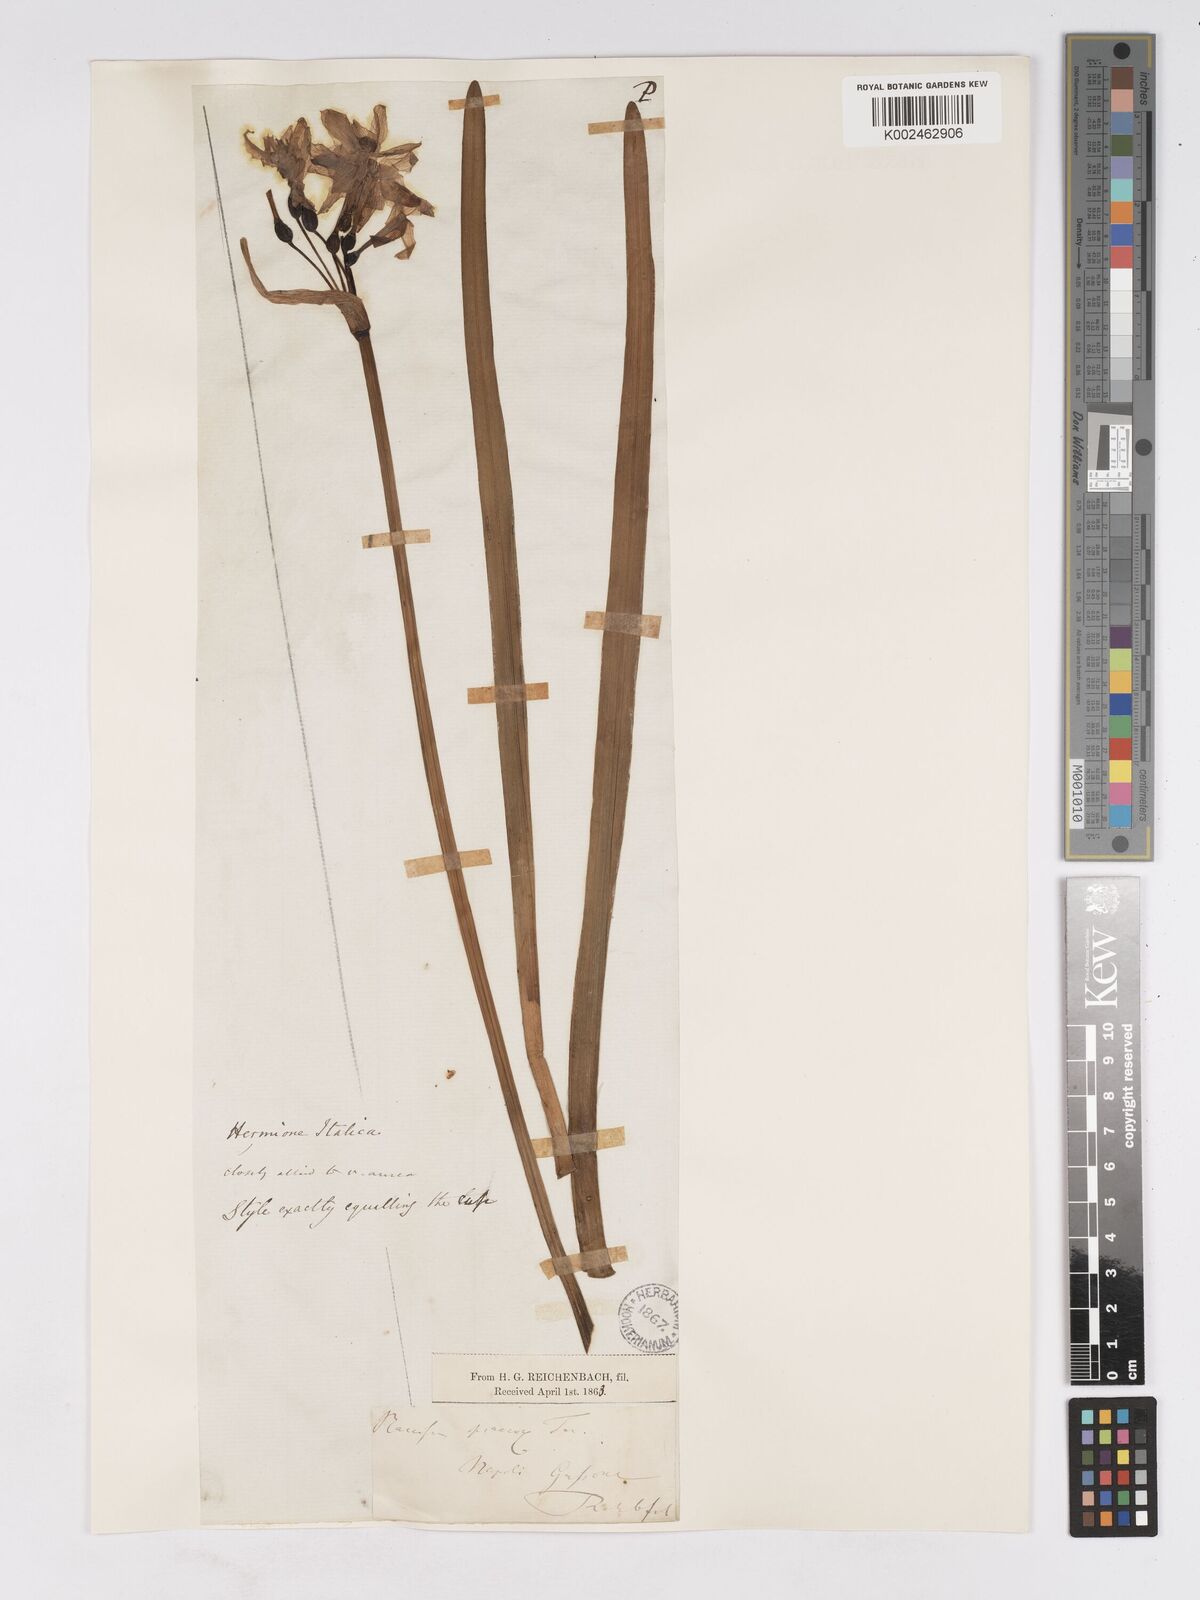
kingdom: Plantae
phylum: Tracheophyta
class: Liliopsida
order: Asparagales
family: Amaryllidaceae
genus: Narcissus
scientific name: Narcissus tazetta
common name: Bunch-flowered daffodil
